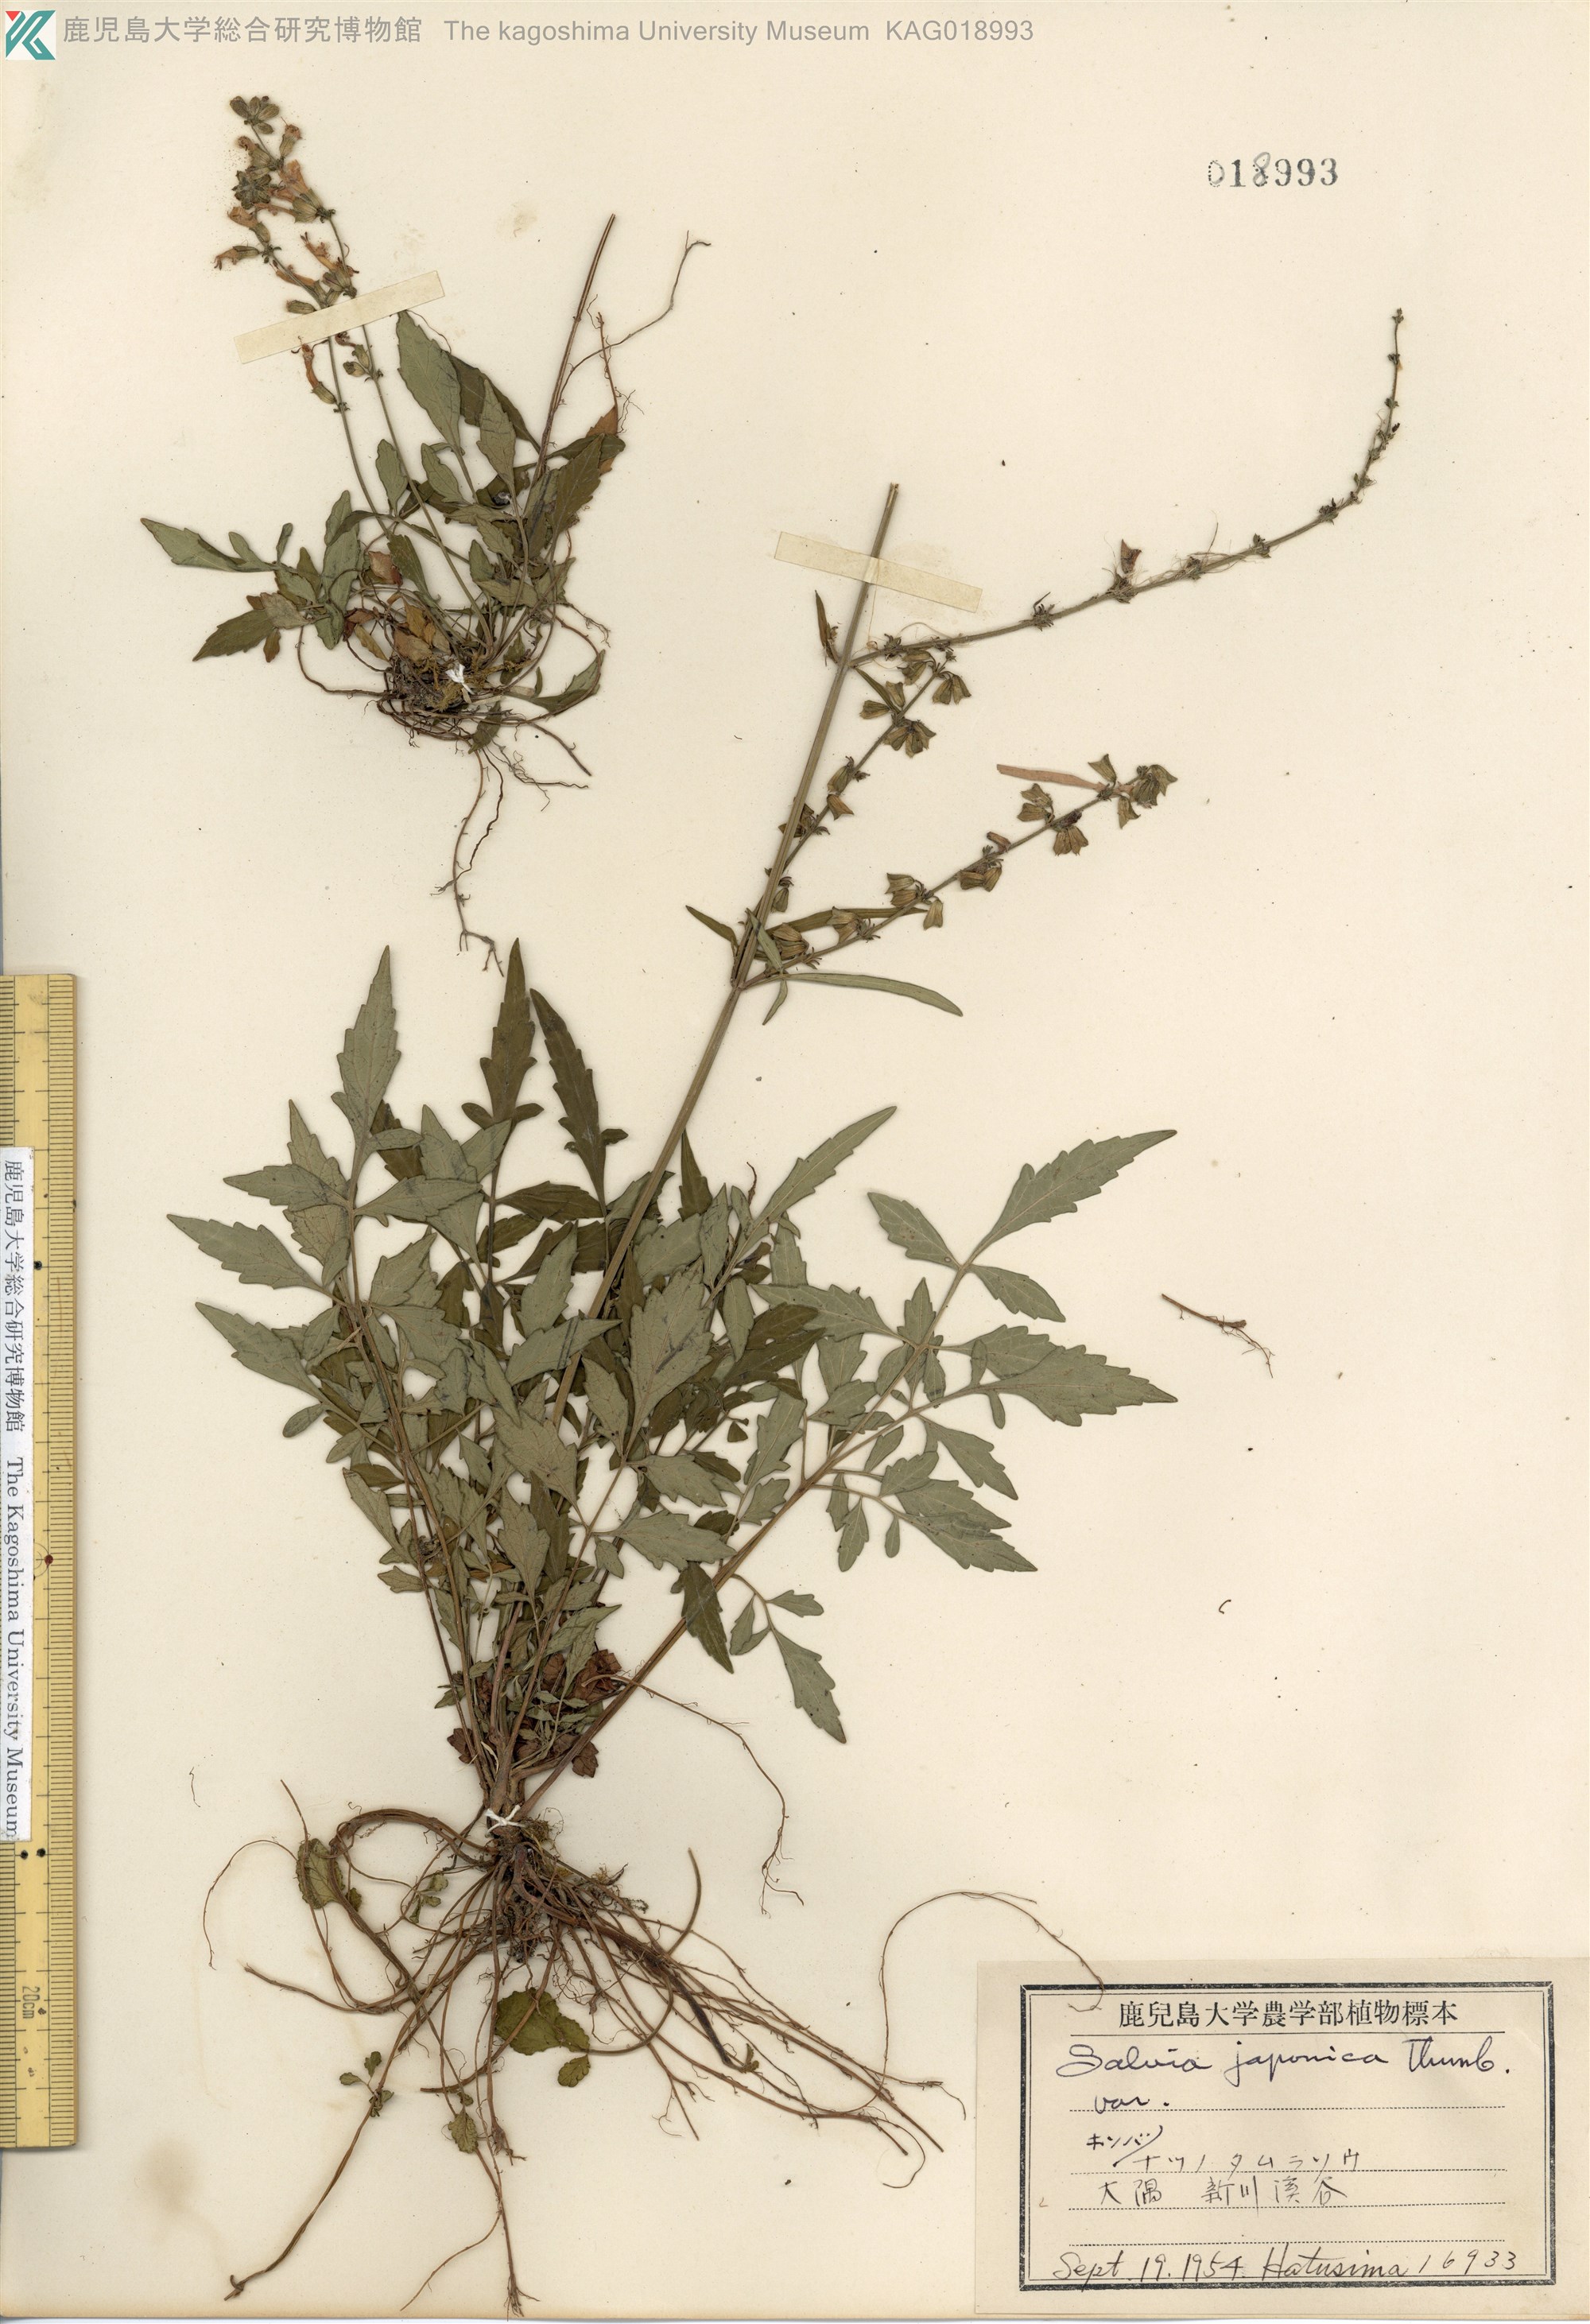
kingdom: Plantae
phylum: Tracheophyta
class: Magnoliopsida
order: Lamiales
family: Lamiaceae
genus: Salvia
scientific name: Salvia japonica
